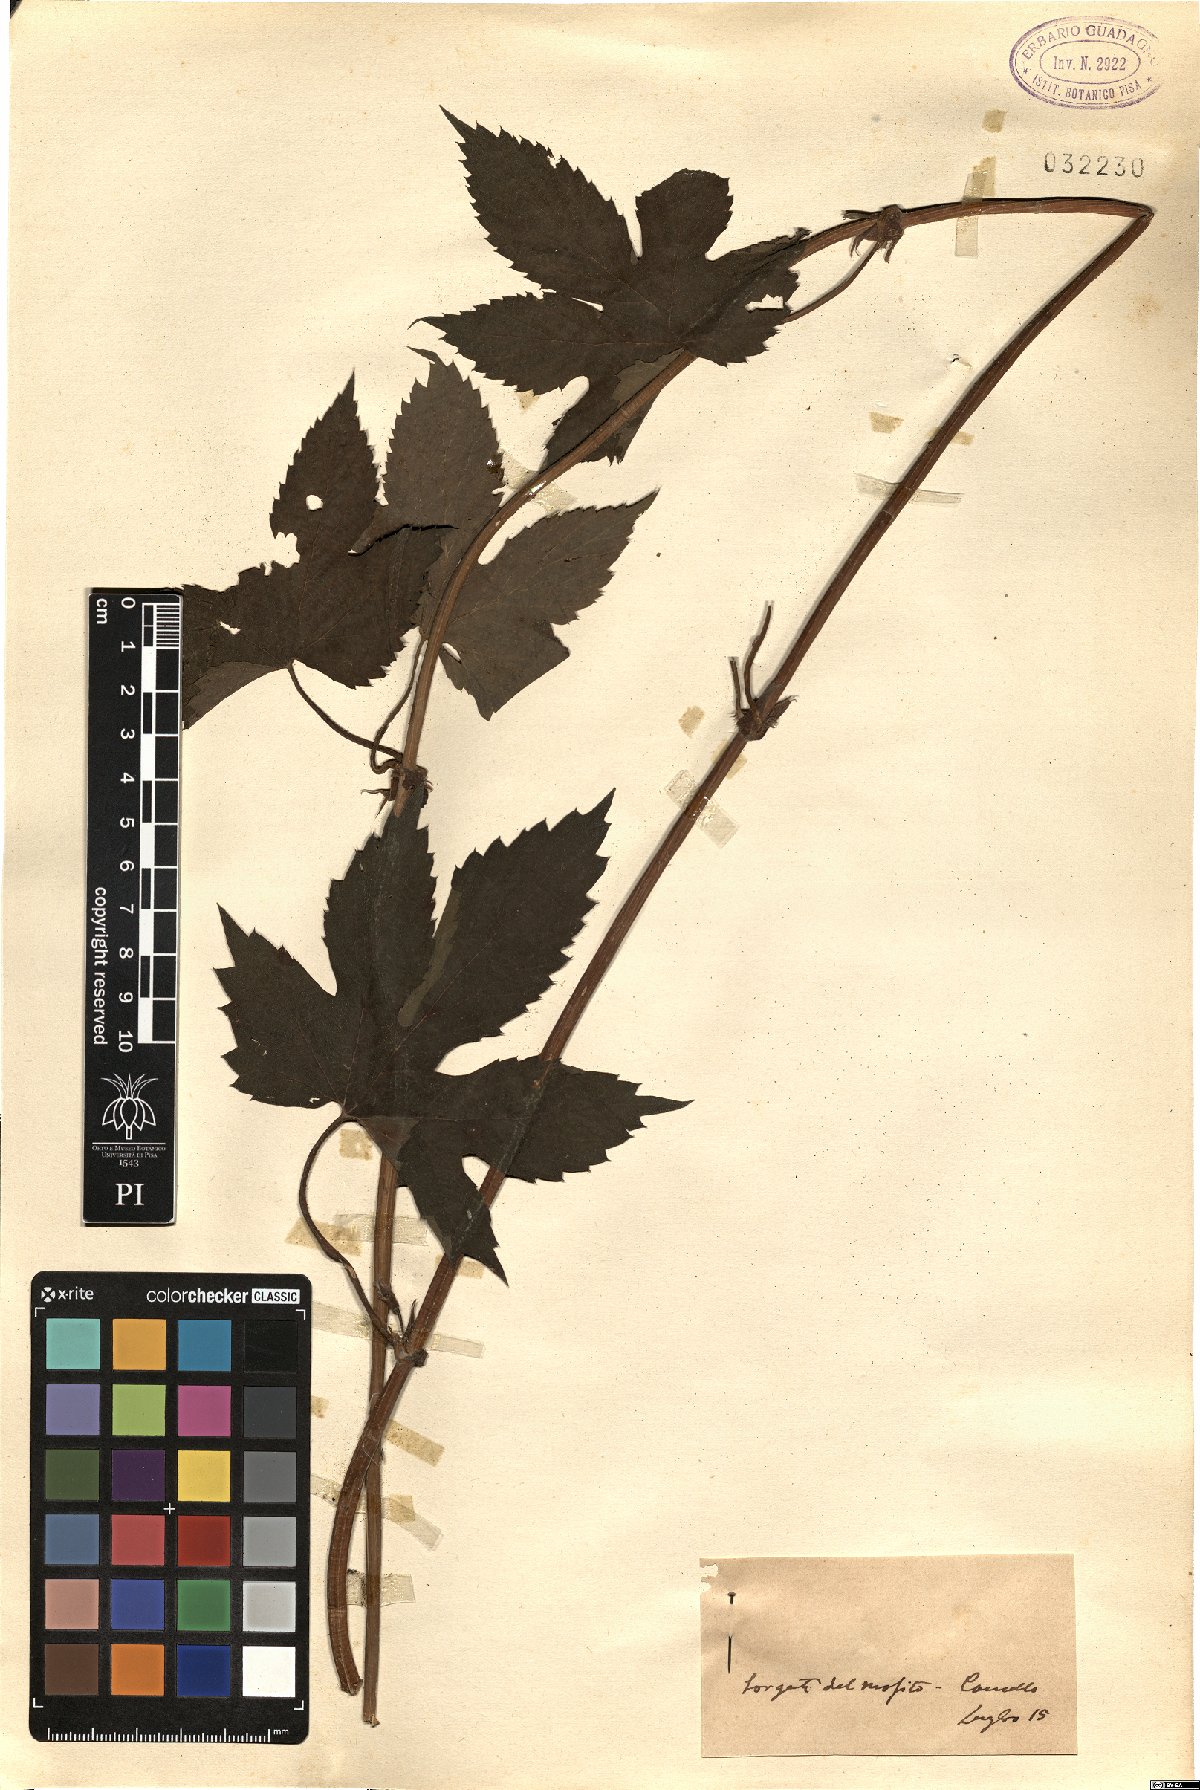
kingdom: Plantae
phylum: Tracheophyta
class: Magnoliopsida
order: Rosales
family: Cannabaceae
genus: Humulus
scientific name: Humulus
